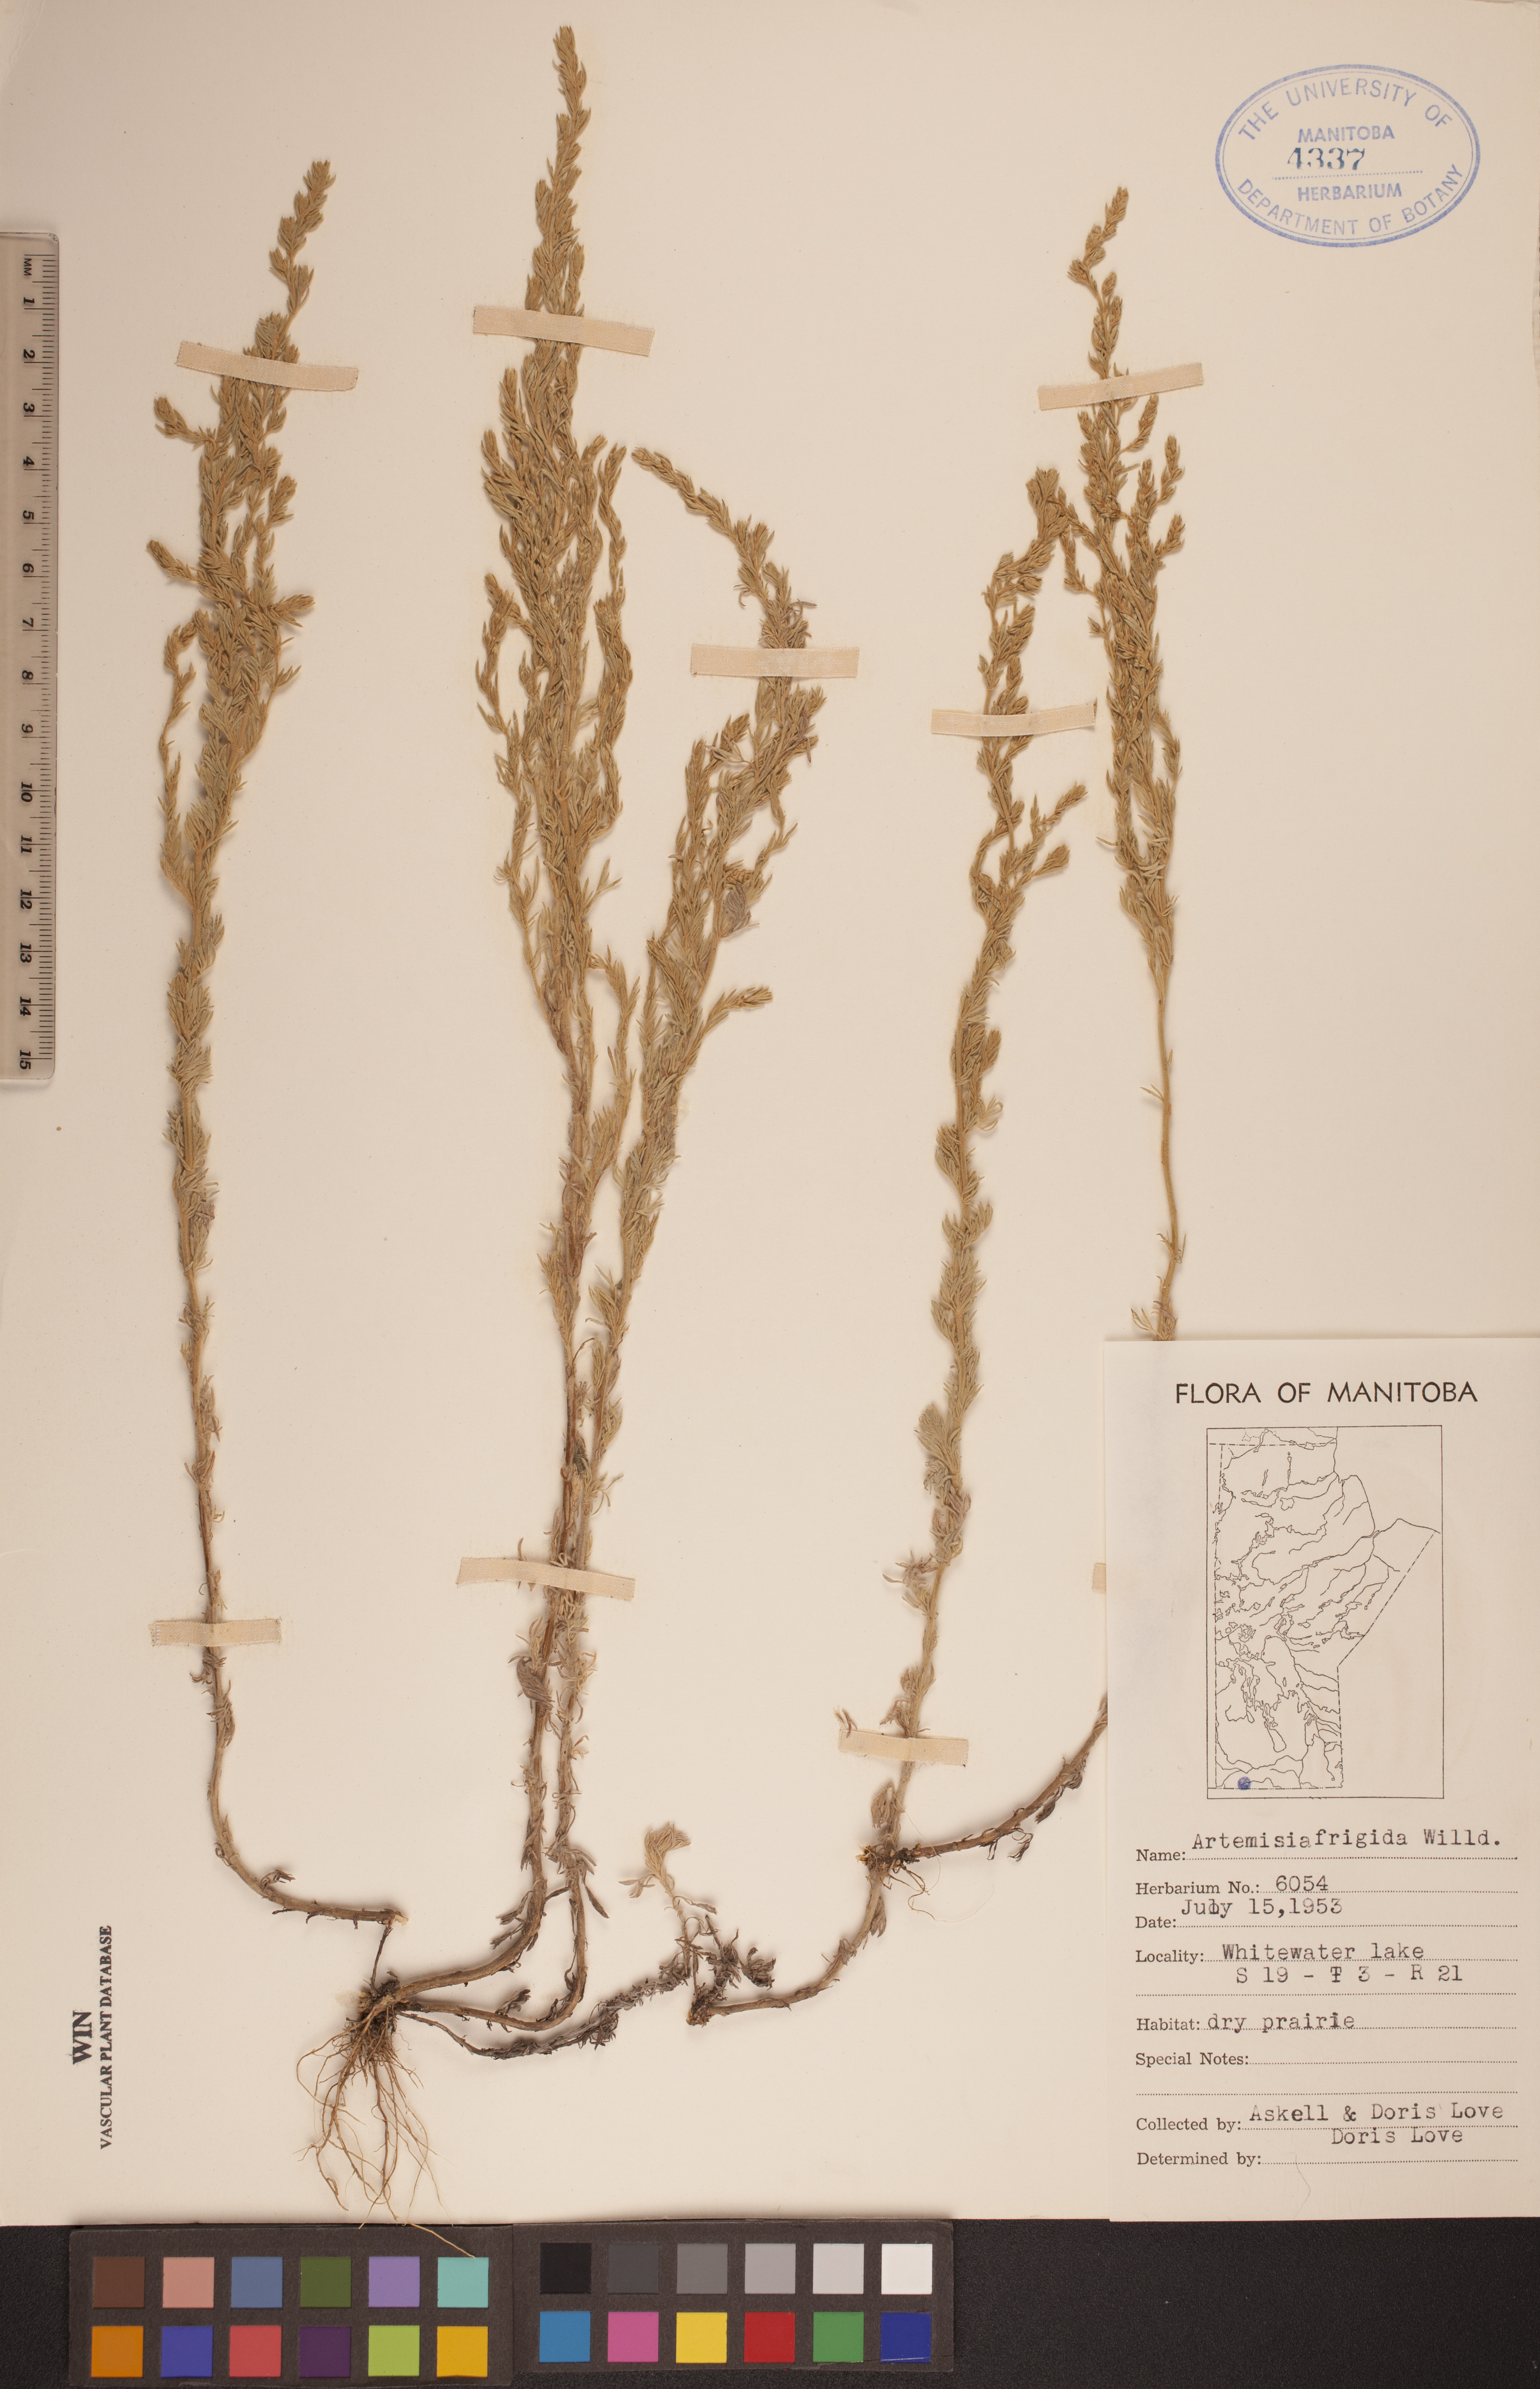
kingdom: Plantae
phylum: Tracheophyta
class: Magnoliopsida
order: Asterales
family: Asteraceae
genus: Artemisia
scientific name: Artemisia frigida
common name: Prairie sagewort
